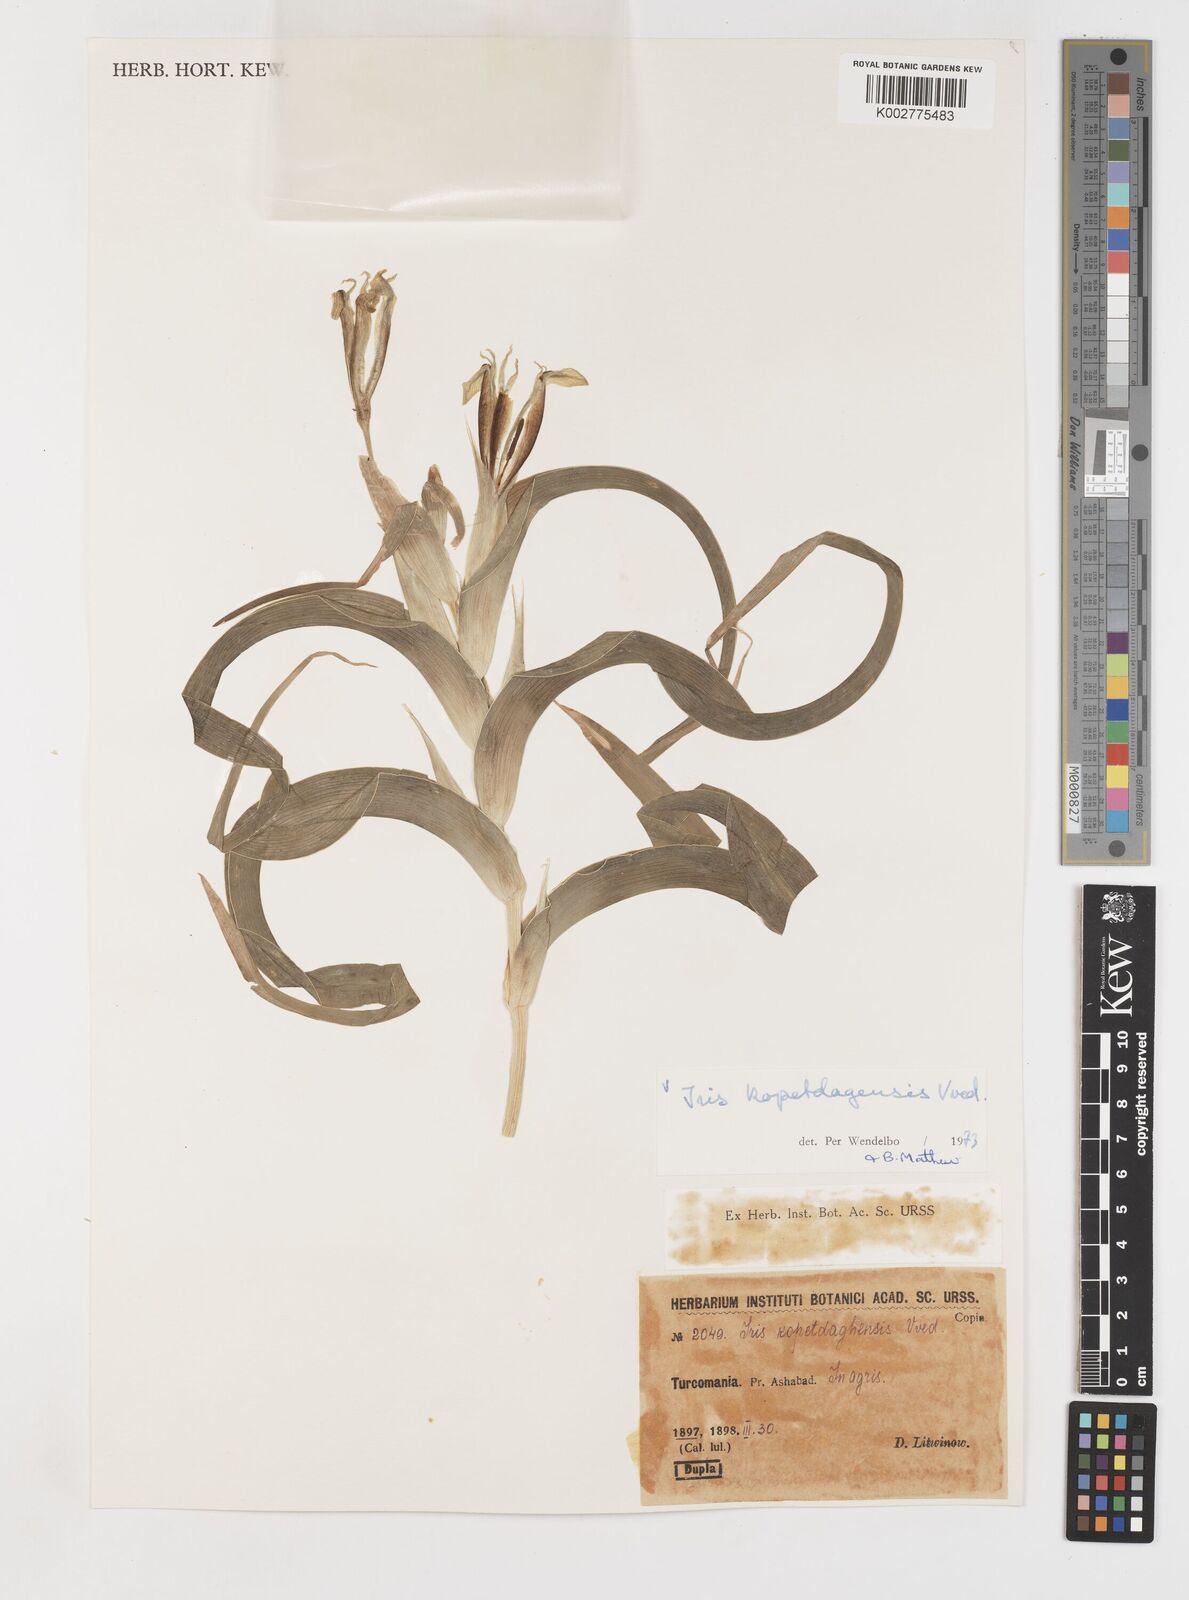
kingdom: Plantae
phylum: Tracheophyta
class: Liliopsida
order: Asparagales
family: Iridaceae
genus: Iris
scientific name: Iris kopetdagensis
